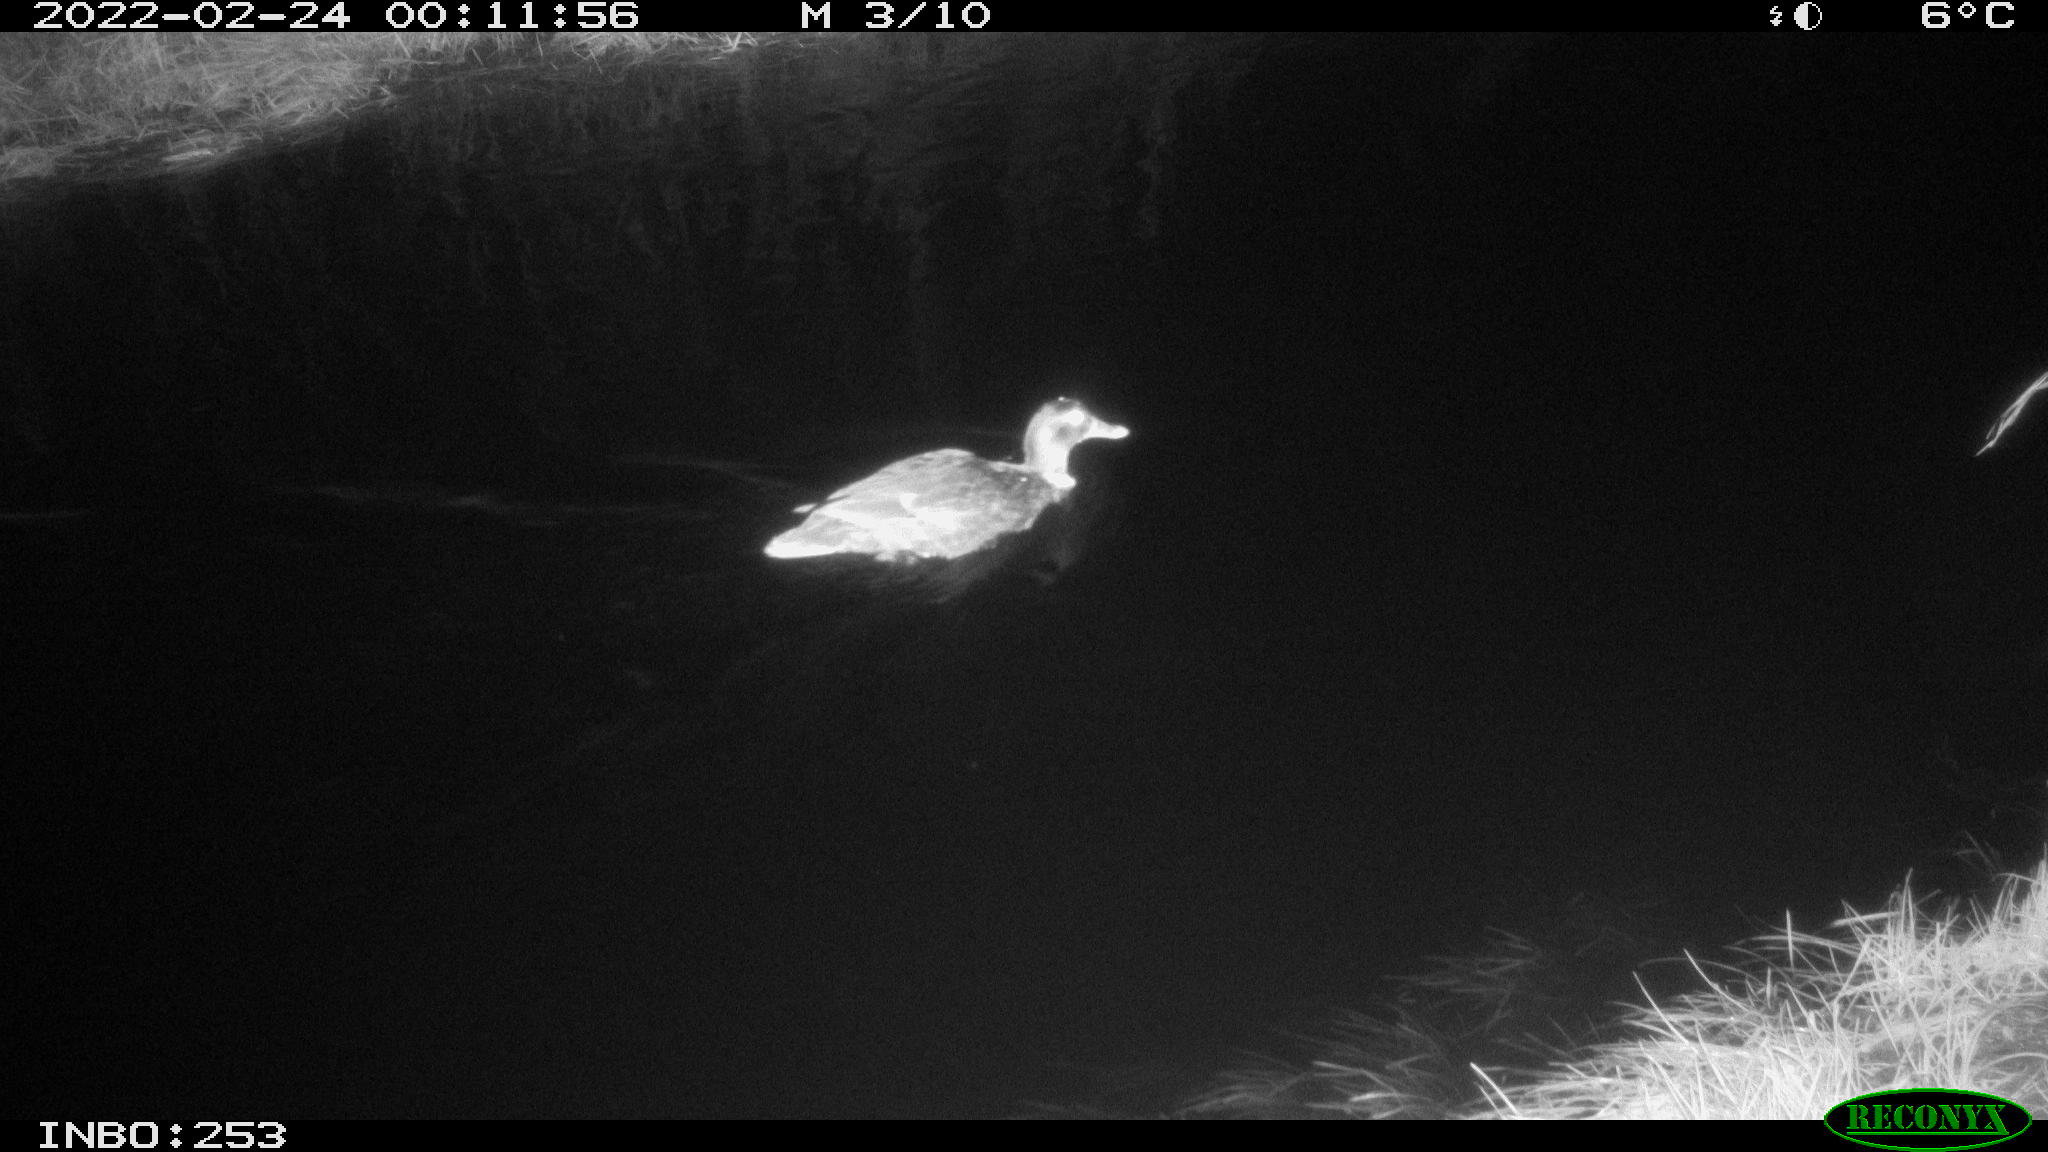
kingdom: Animalia
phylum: Chordata
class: Aves
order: Anseriformes
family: Anatidae
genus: Anas
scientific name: Anas platyrhynchos
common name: Mallard
